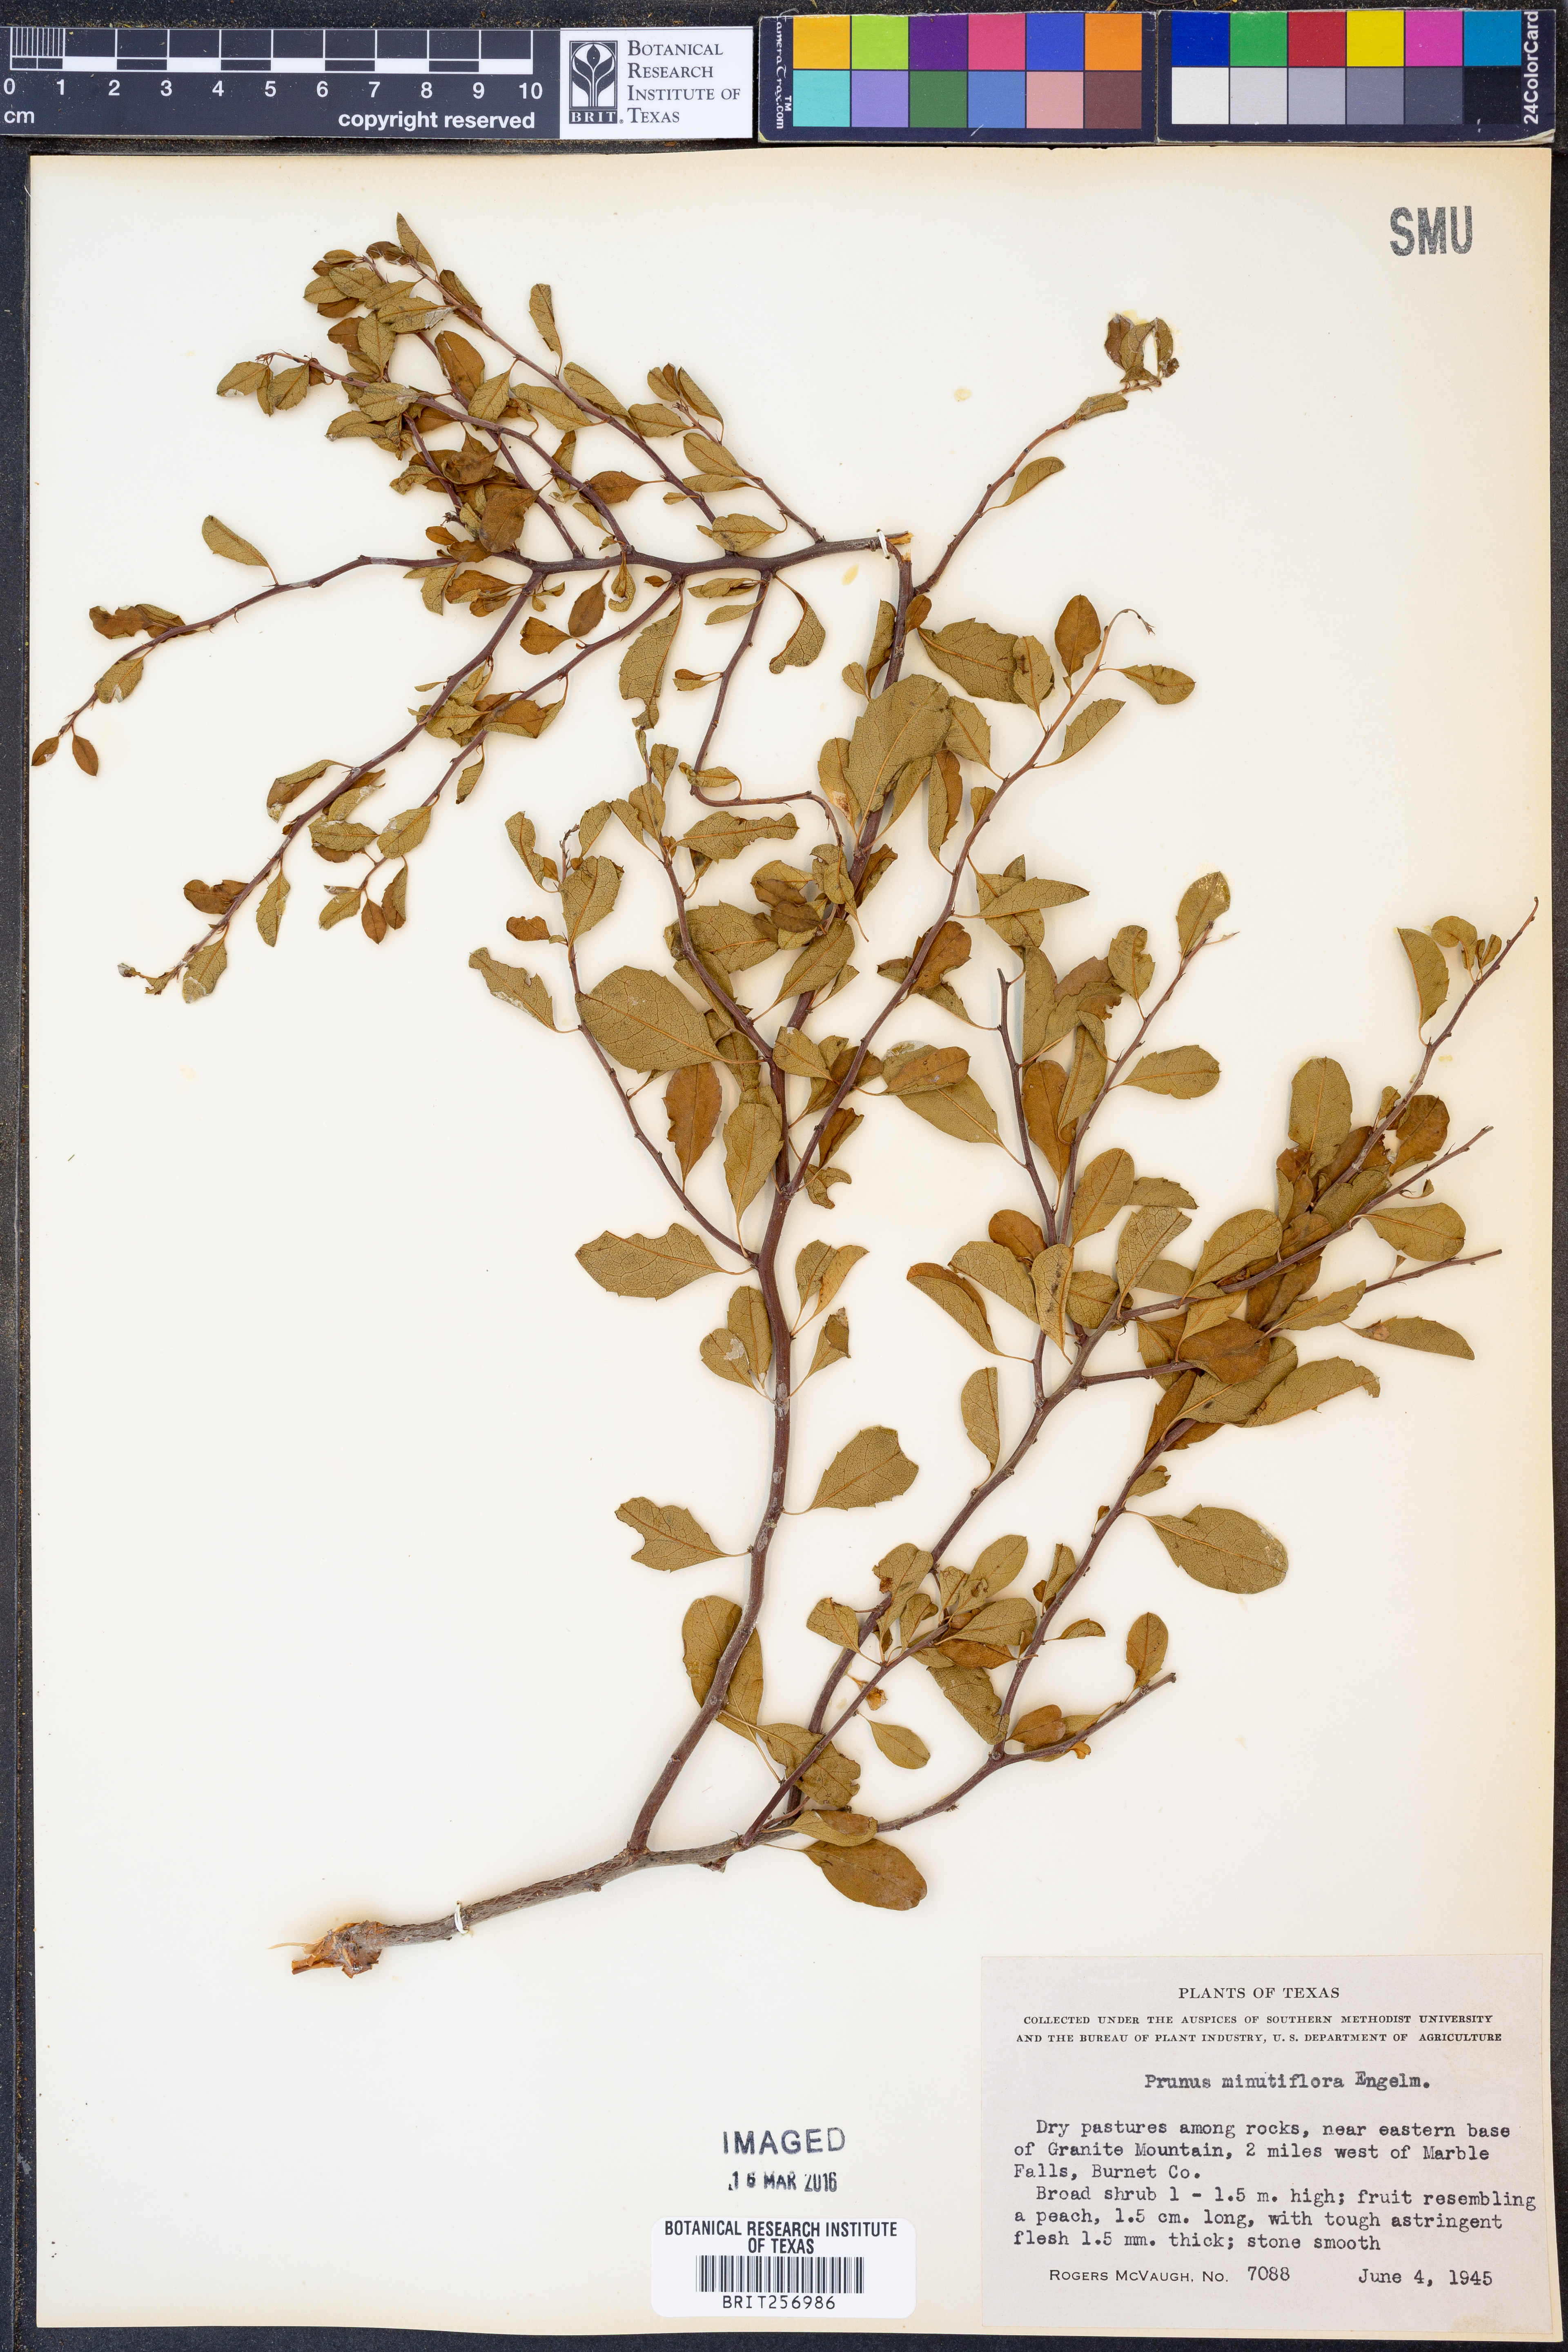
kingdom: Plantae
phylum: Tracheophyta
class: Magnoliopsida
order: Rosales
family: Rosaceae
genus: Prunus
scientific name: Prunus minutiflora
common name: Texas almond
